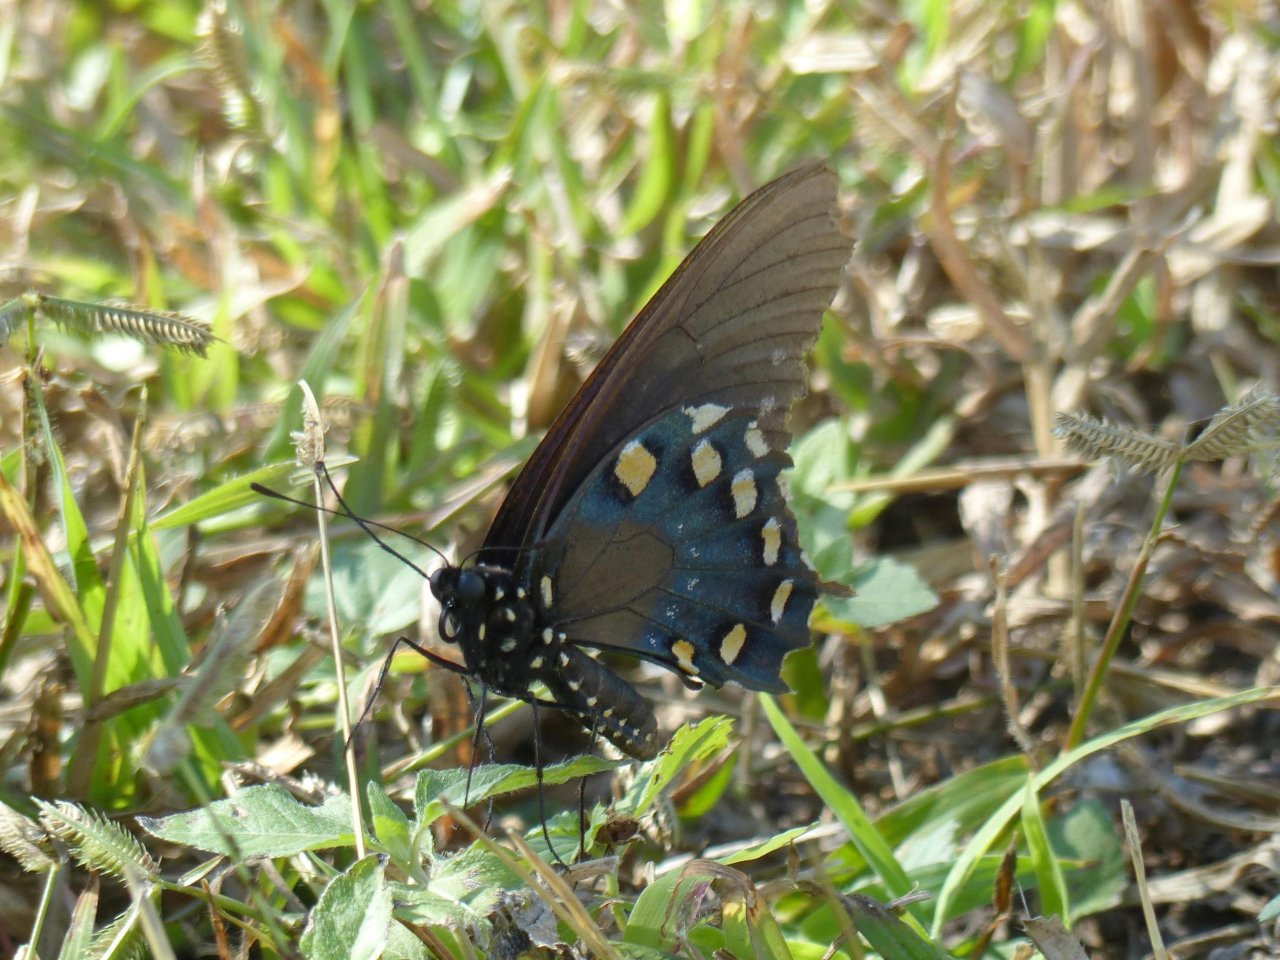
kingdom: Animalia
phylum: Arthropoda
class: Insecta
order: Lepidoptera
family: Papilionidae
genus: Battus
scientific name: Battus philenor
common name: Pipevine Swallowtail
